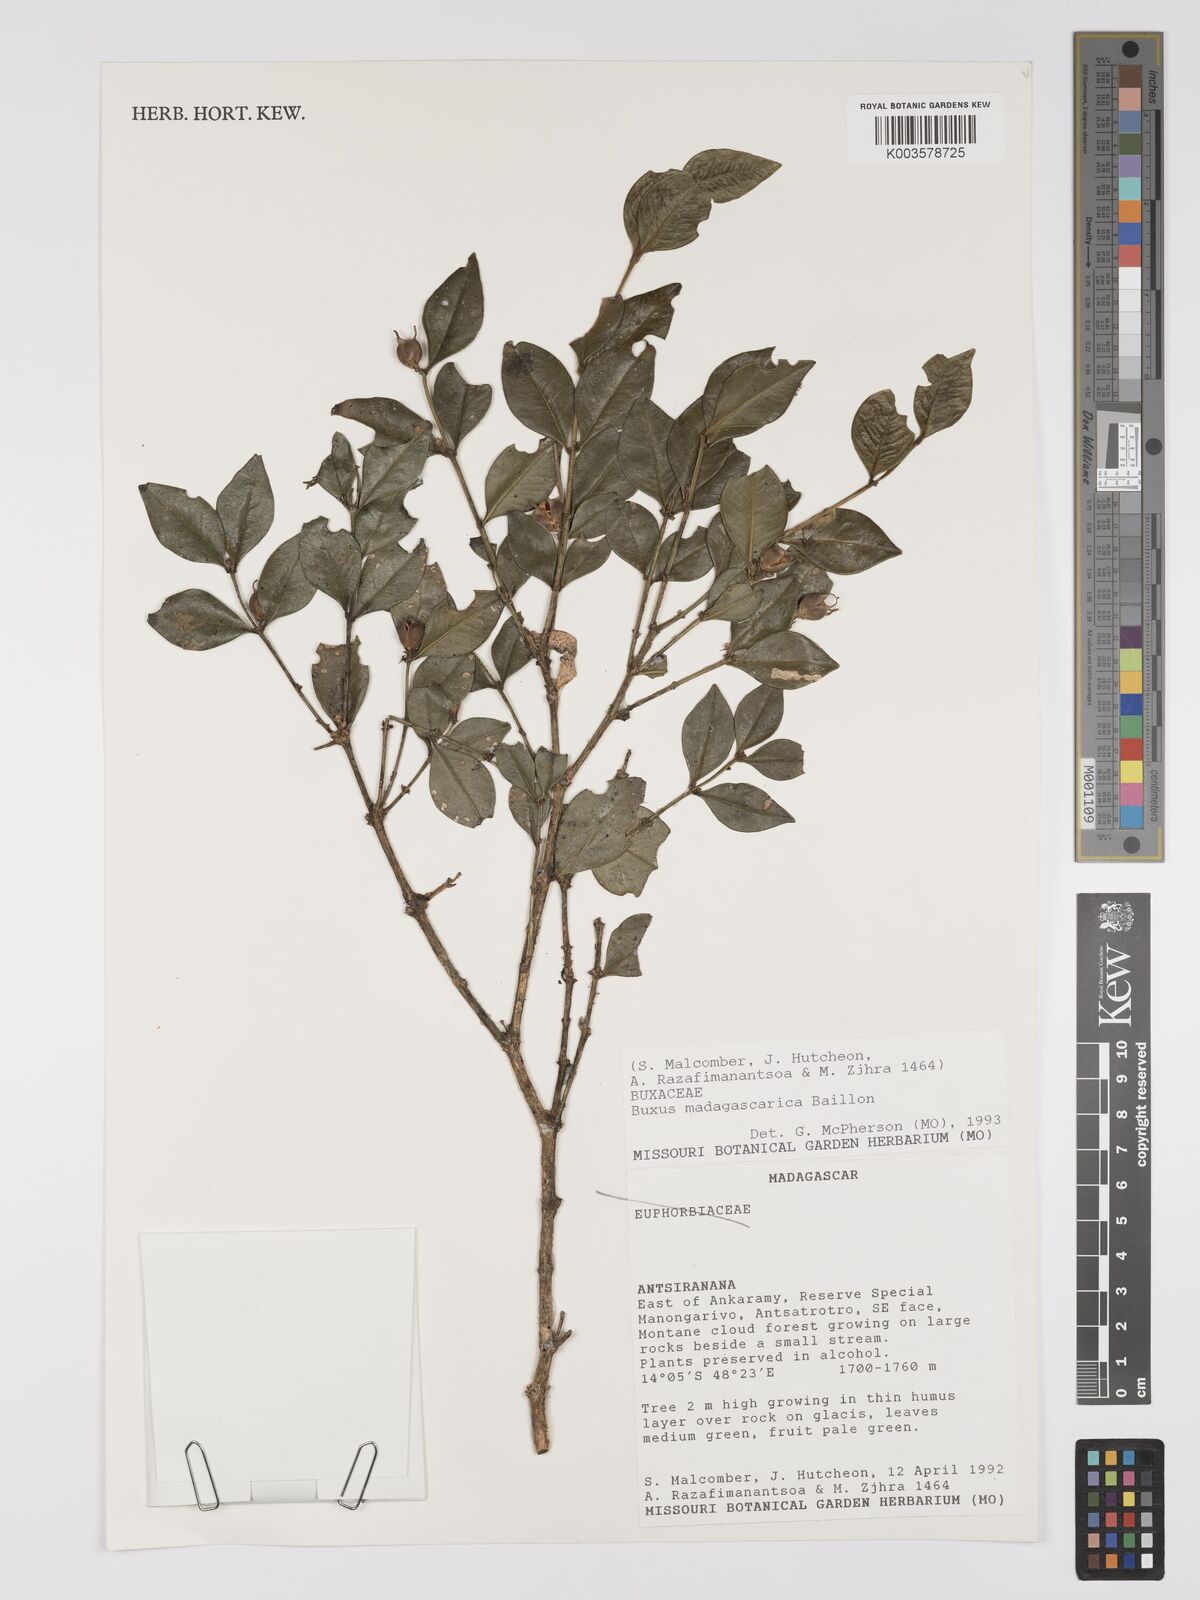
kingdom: Plantae
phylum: Tracheophyta
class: Magnoliopsida
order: Buxales
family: Buxaceae
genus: Buxus
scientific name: Buxus madagascarica
